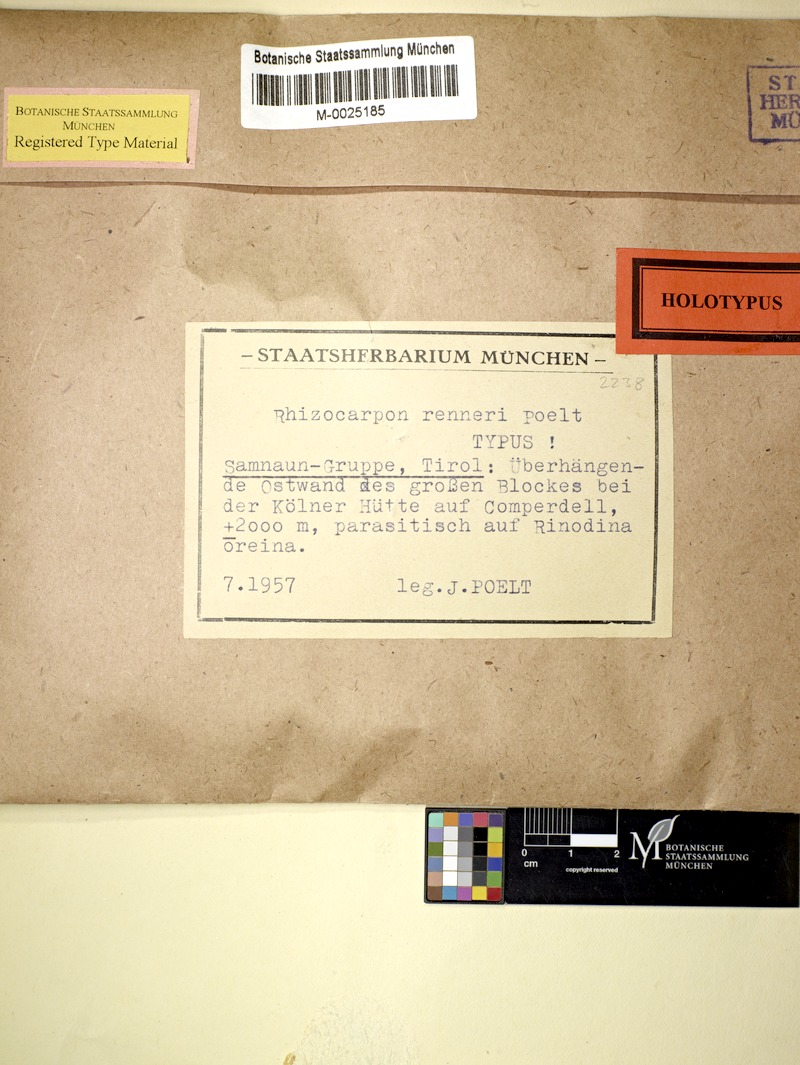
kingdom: Fungi
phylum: Ascomycota
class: Lecanoromycetes
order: Caliciales
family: Caliciaceae
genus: Dimelaena
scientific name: Dimelaena oreina
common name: Golden moonglow lichen
